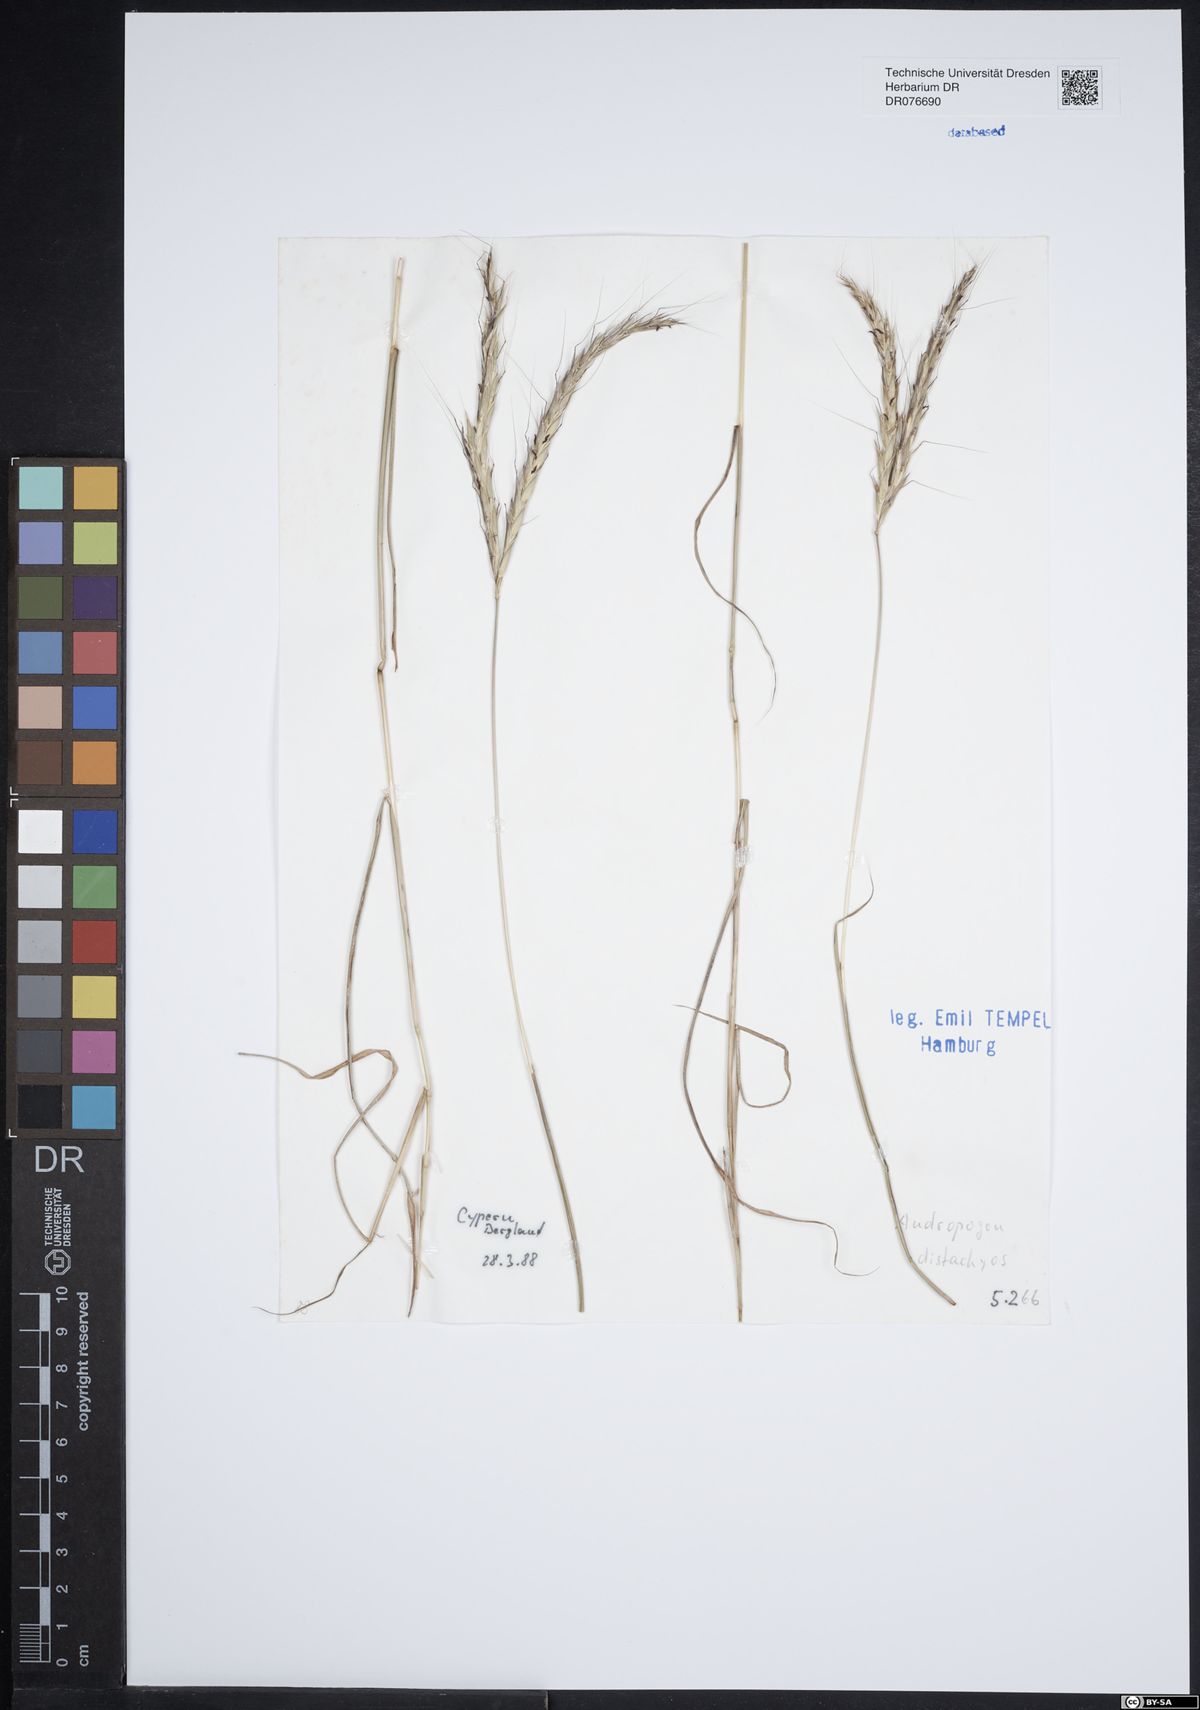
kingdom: Plantae
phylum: Tracheophyta
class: Liliopsida
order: Poales
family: Poaceae
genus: Andropogon
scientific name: Andropogon distachyos
